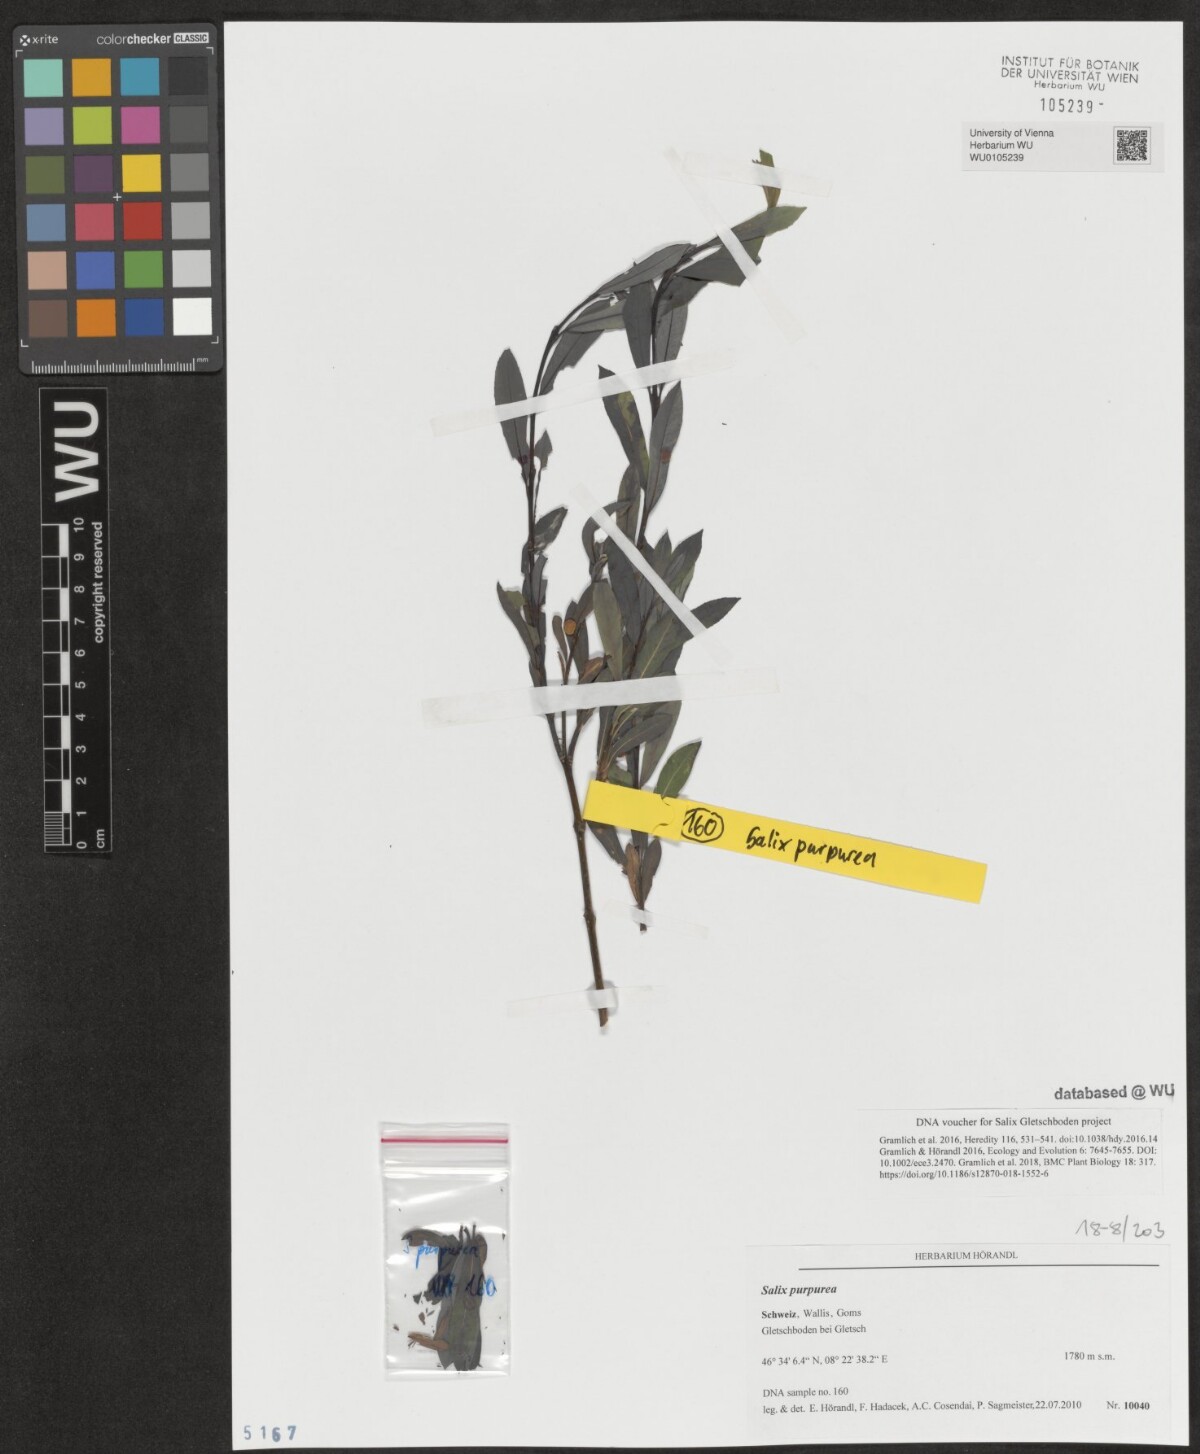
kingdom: Plantae
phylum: Tracheophyta
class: Magnoliopsida
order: Malpighiales
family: Salicaceae
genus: Salix
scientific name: Salix purpurea
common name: Purple willow
